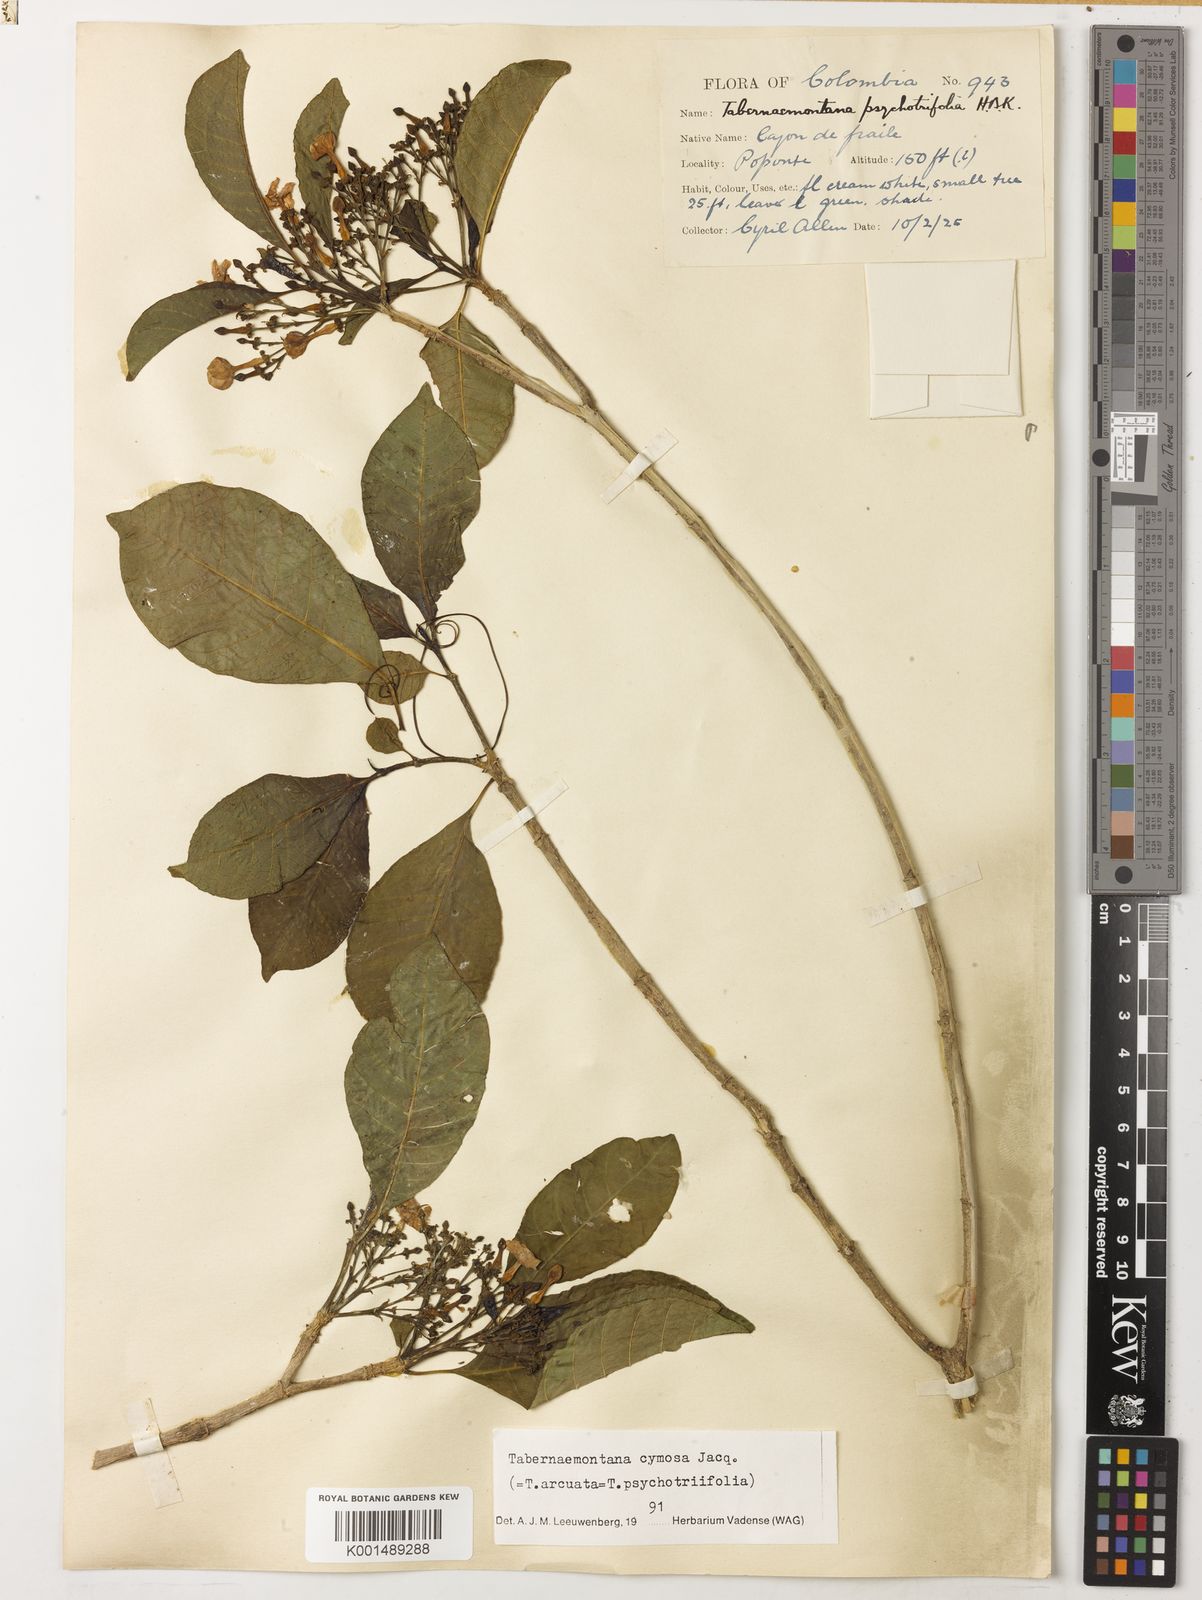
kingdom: Plantae
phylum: Tracheophyta
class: Magnoliopsida
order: Gentianales
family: Apocynaceae
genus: Tabernaemontana
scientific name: Tabernaemontana cymosa
